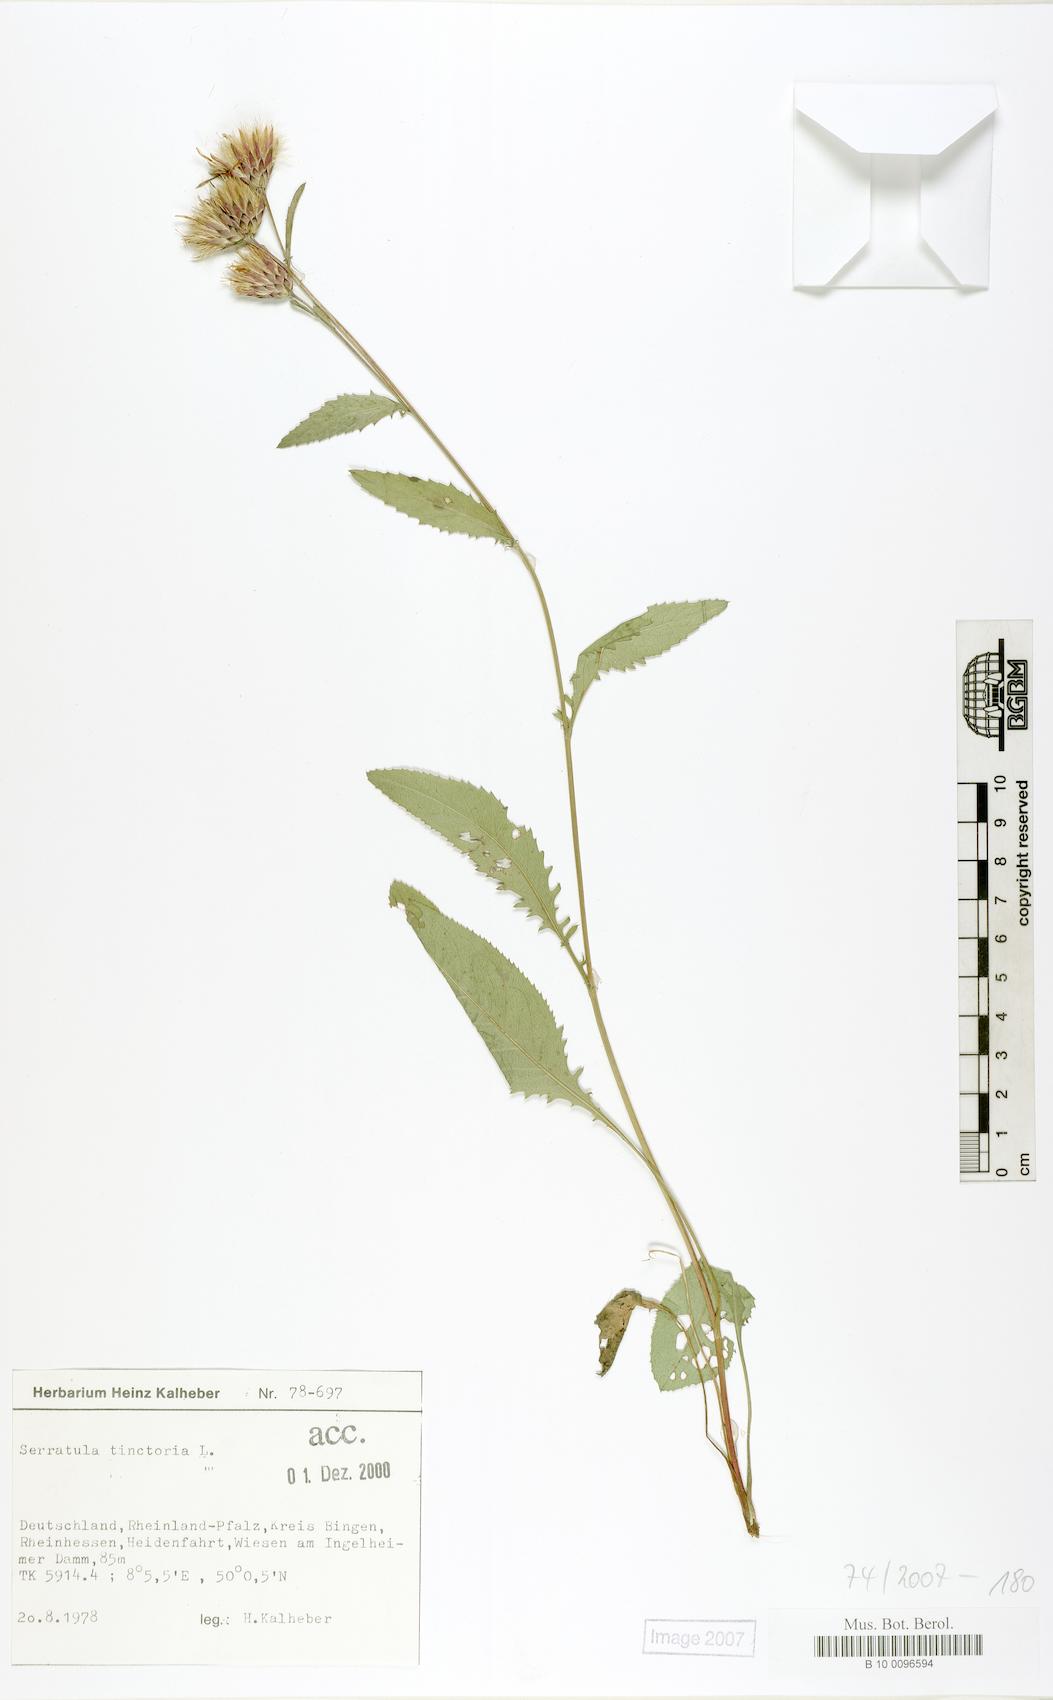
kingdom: Plantae
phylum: Tracheophyta
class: Magnoliopsida
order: Asterales
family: Asteraceae
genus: Serratula
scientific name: Serratula tinctoria
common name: Saw-wort
